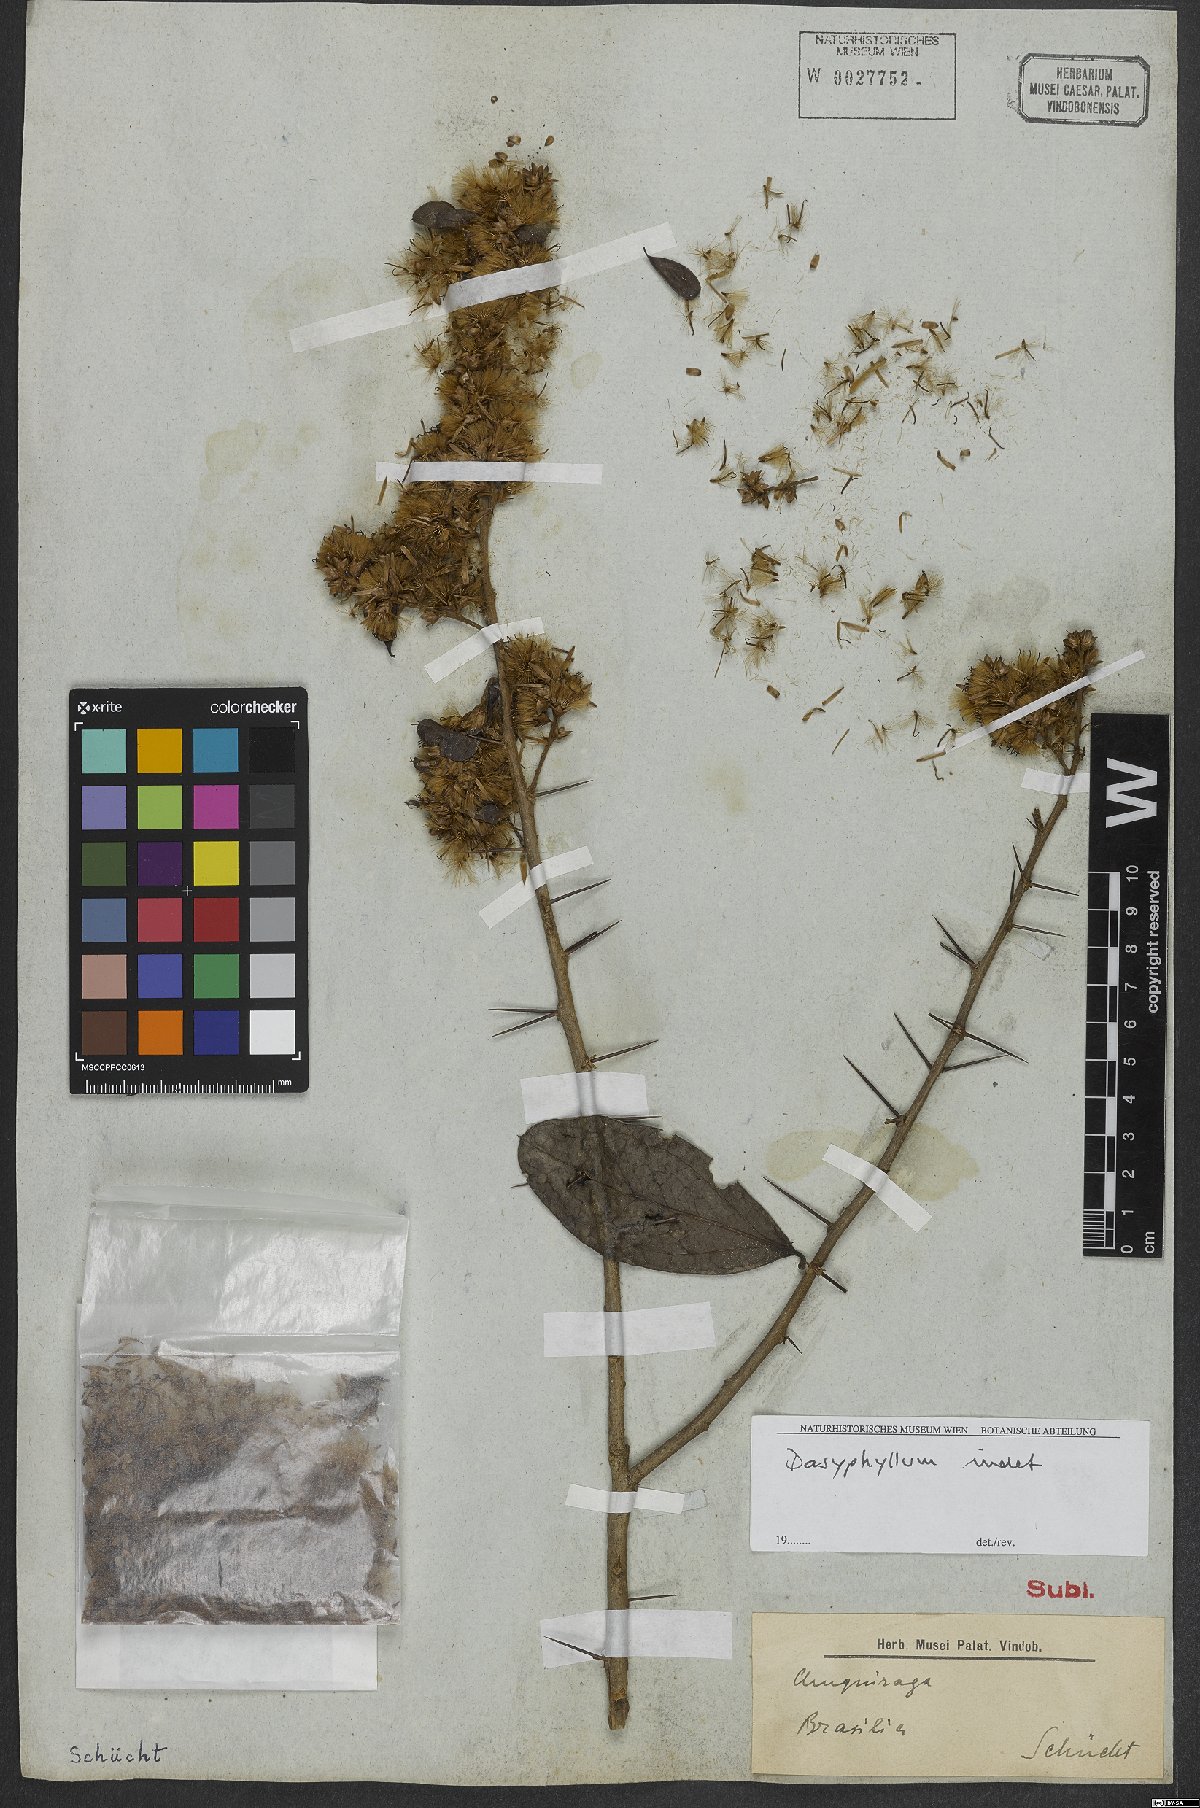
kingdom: Plantae
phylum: Tracheophyta
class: Magnoliopsida
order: Asterales
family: Asteraceae
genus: Dasyphyllum
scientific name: Dasyphyllum
